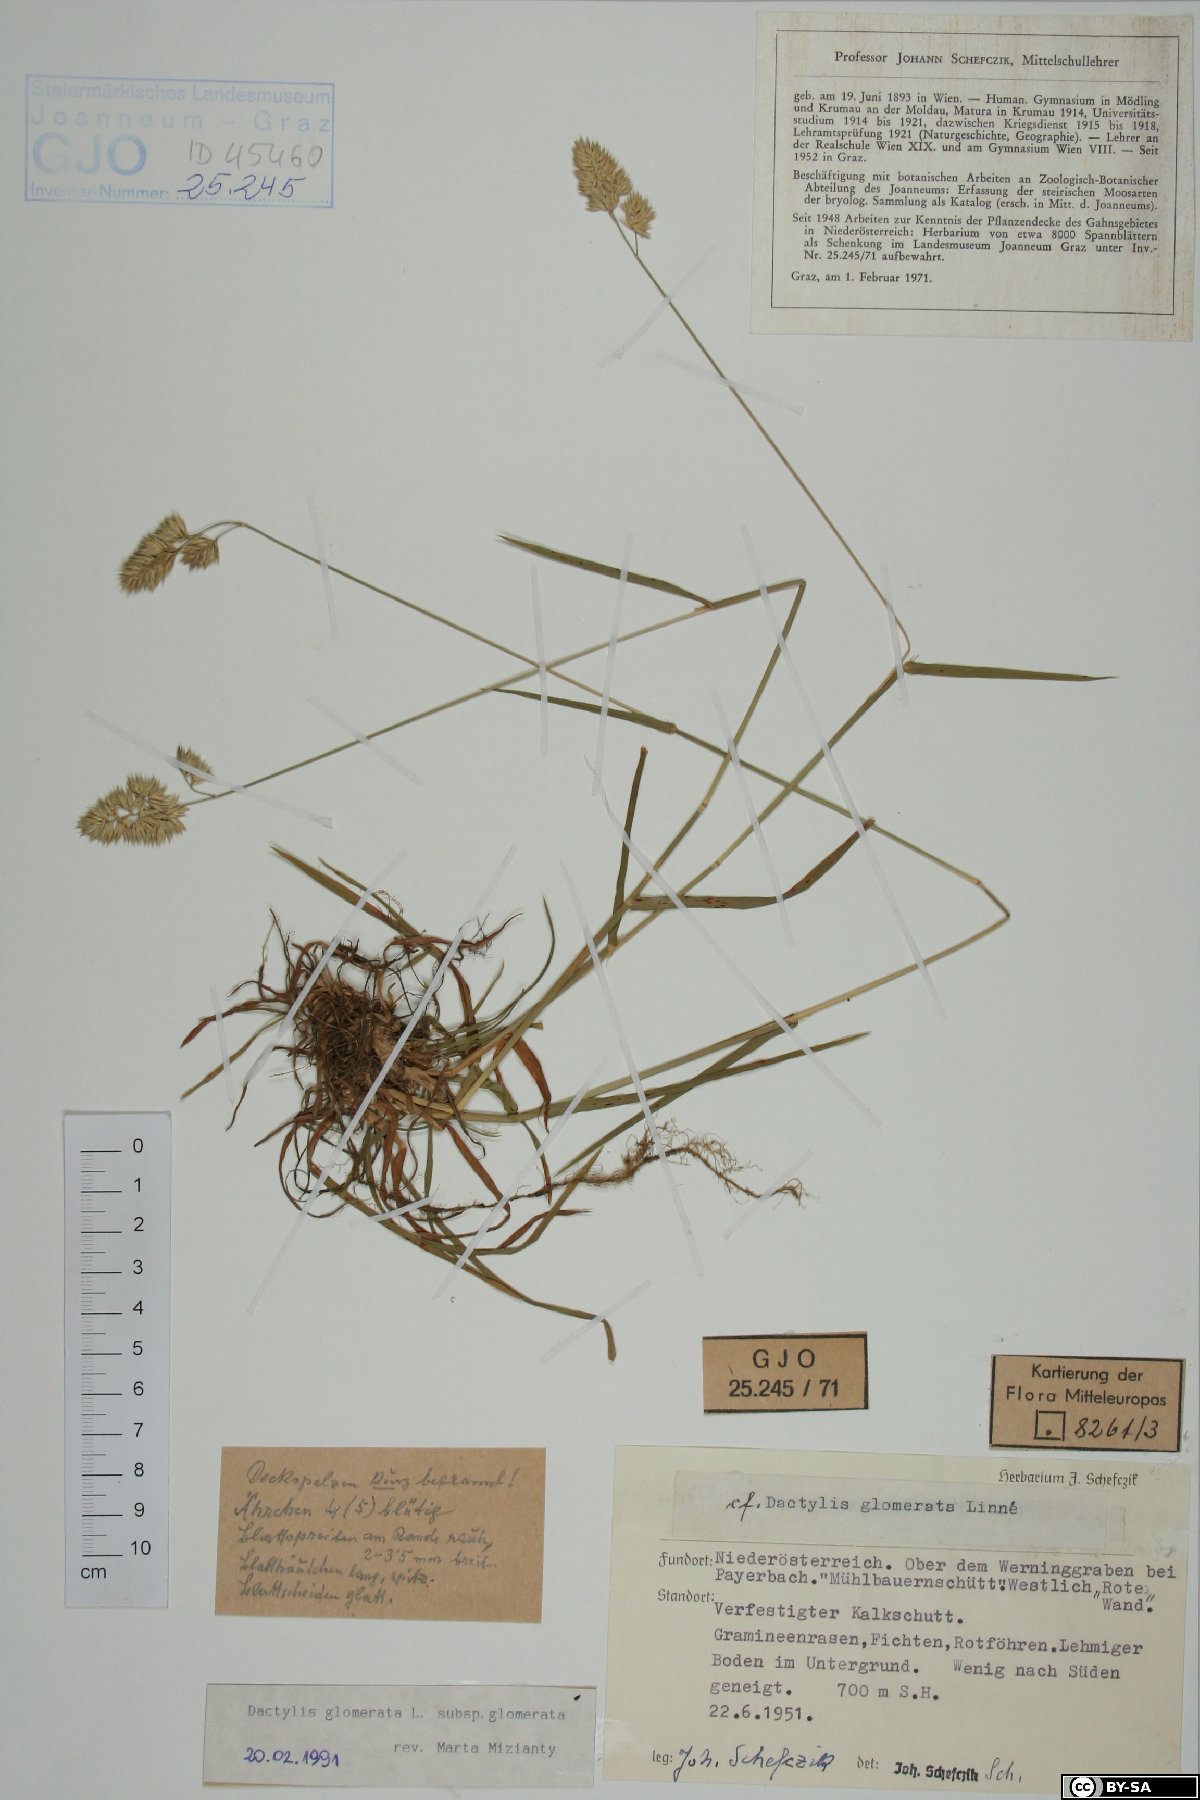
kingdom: Plantae
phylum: Tracheophyta
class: Liliopsida
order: Poales
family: Poaceae
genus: Dactylis
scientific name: Dactylis glomerata
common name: Orchardgrass
